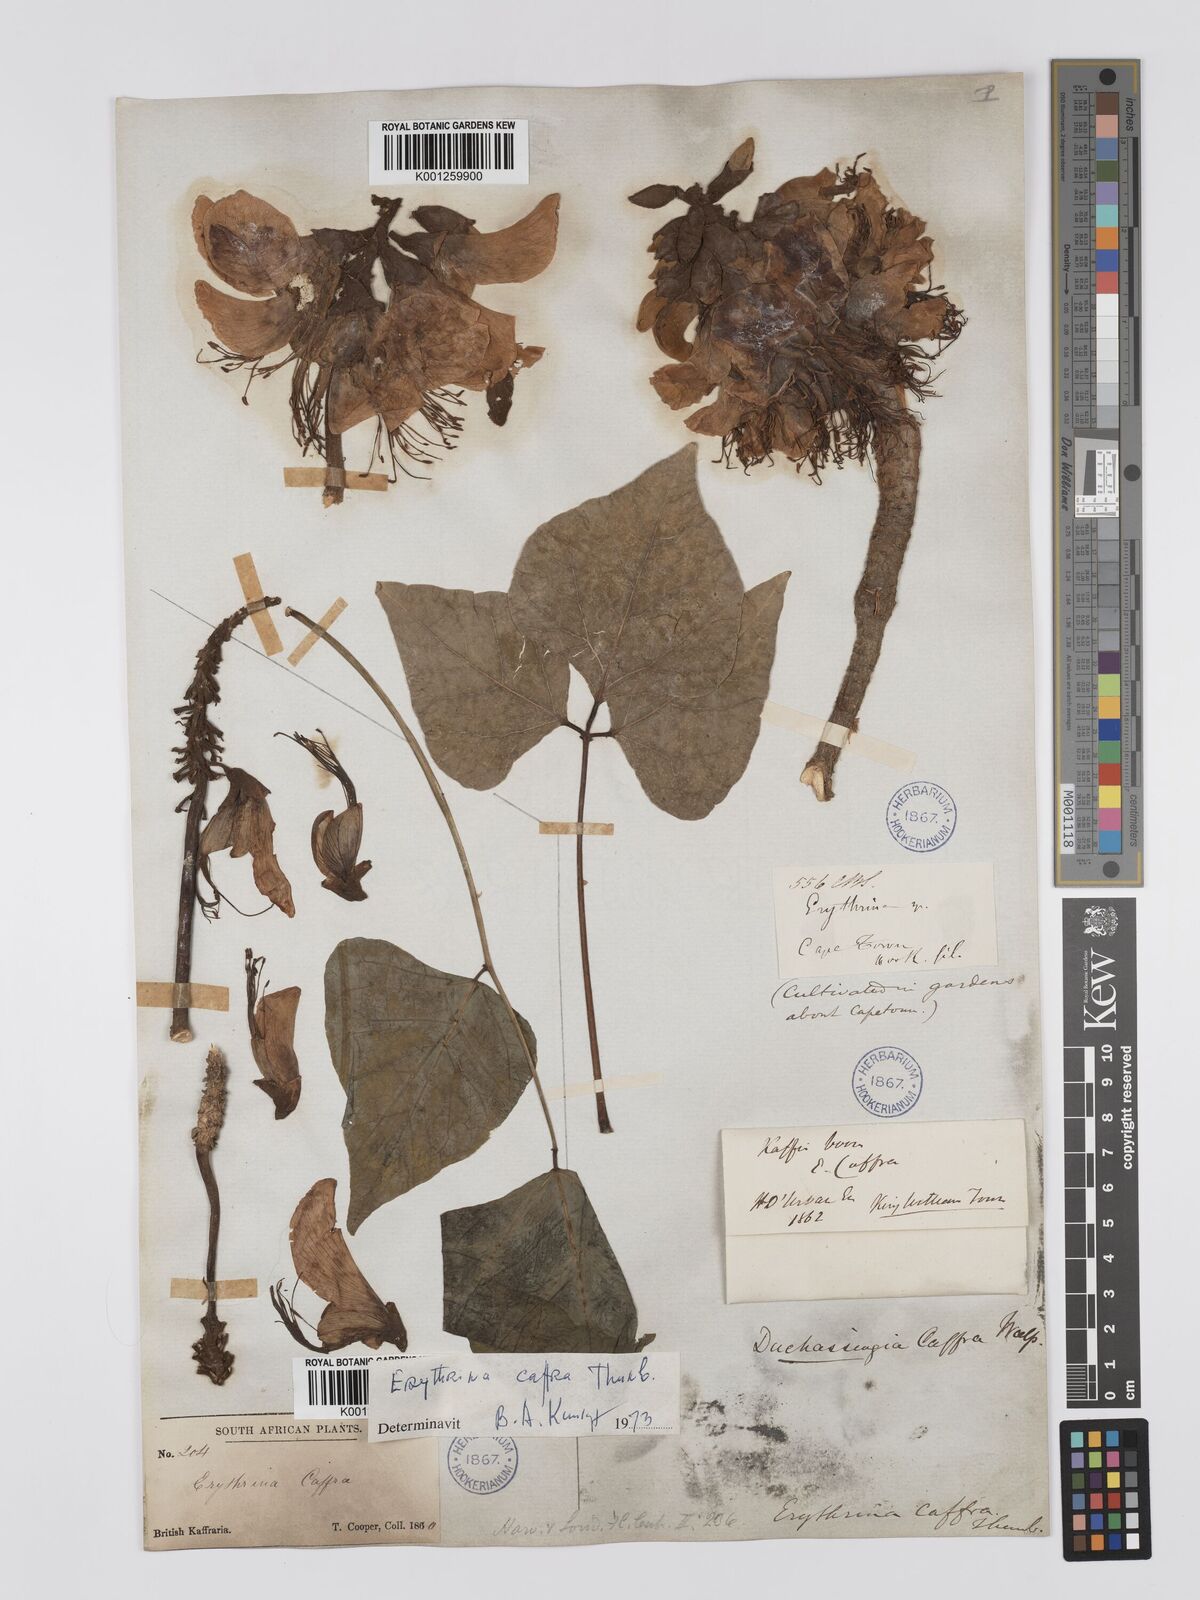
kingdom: Plantae
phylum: Tracheophyta
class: Magnoliopsida
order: Fabales
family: Fabaceae
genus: Erythrina
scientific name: Erythrina caffra
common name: Coast coral tree
